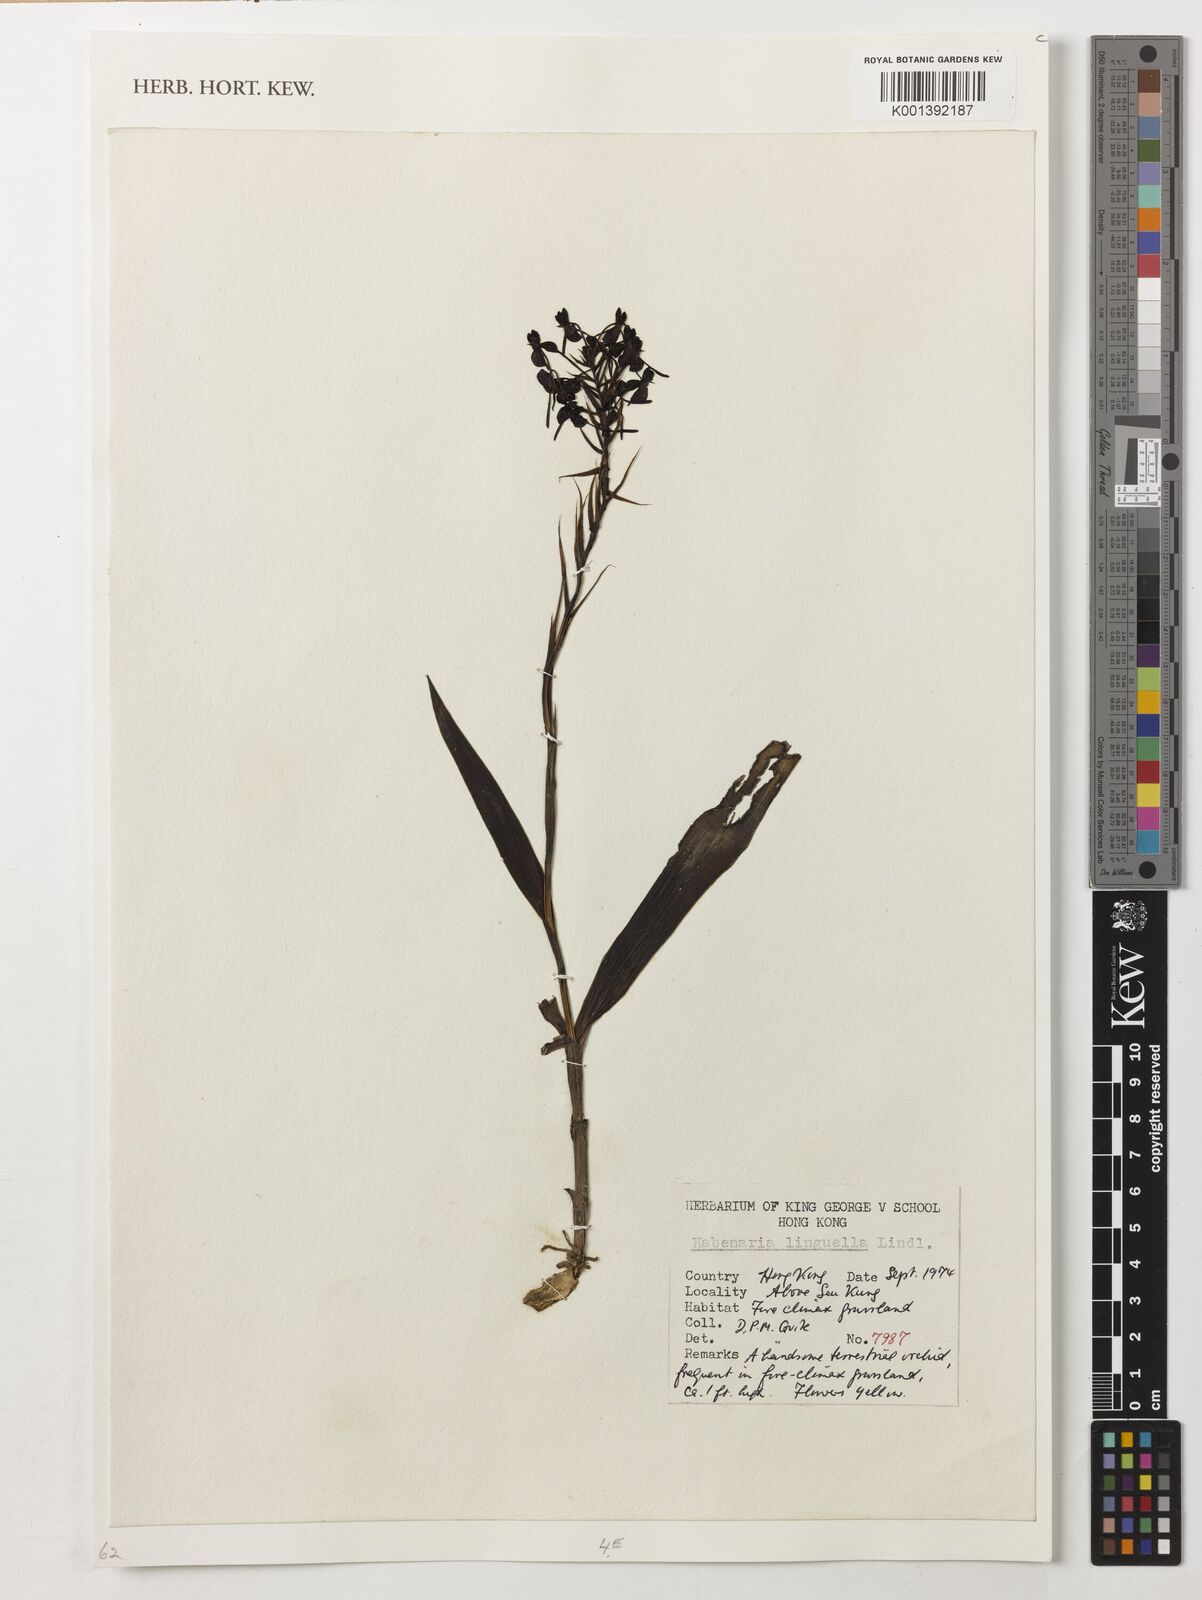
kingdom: Plantae
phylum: Tracheophyta
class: Liliopsida
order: Asparagales
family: Orchidaceae
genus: Habenaria
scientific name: Habenaria linguella
